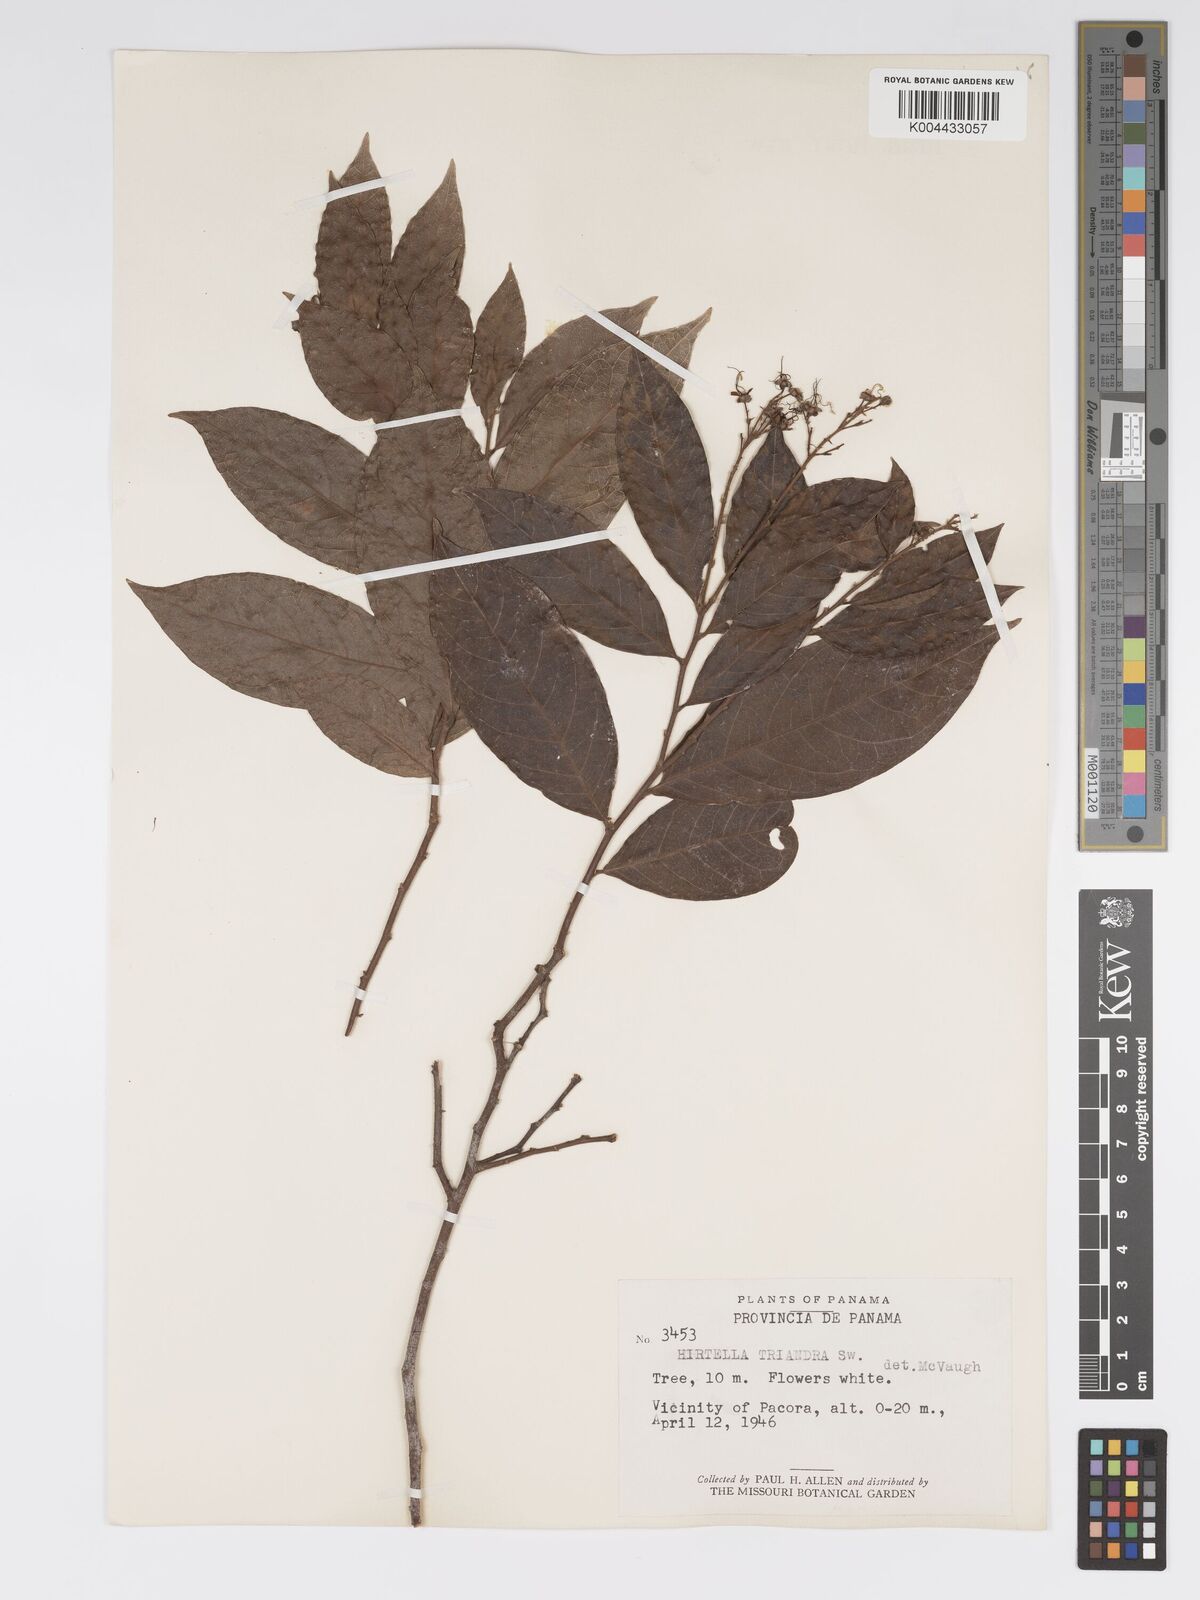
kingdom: Plantae
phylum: Tracheophyta
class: Magnoliopsida
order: Malpighiales
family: Chrysobalanaceae
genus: Hirtella
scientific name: Hirtella triandra
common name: Hairy plum
